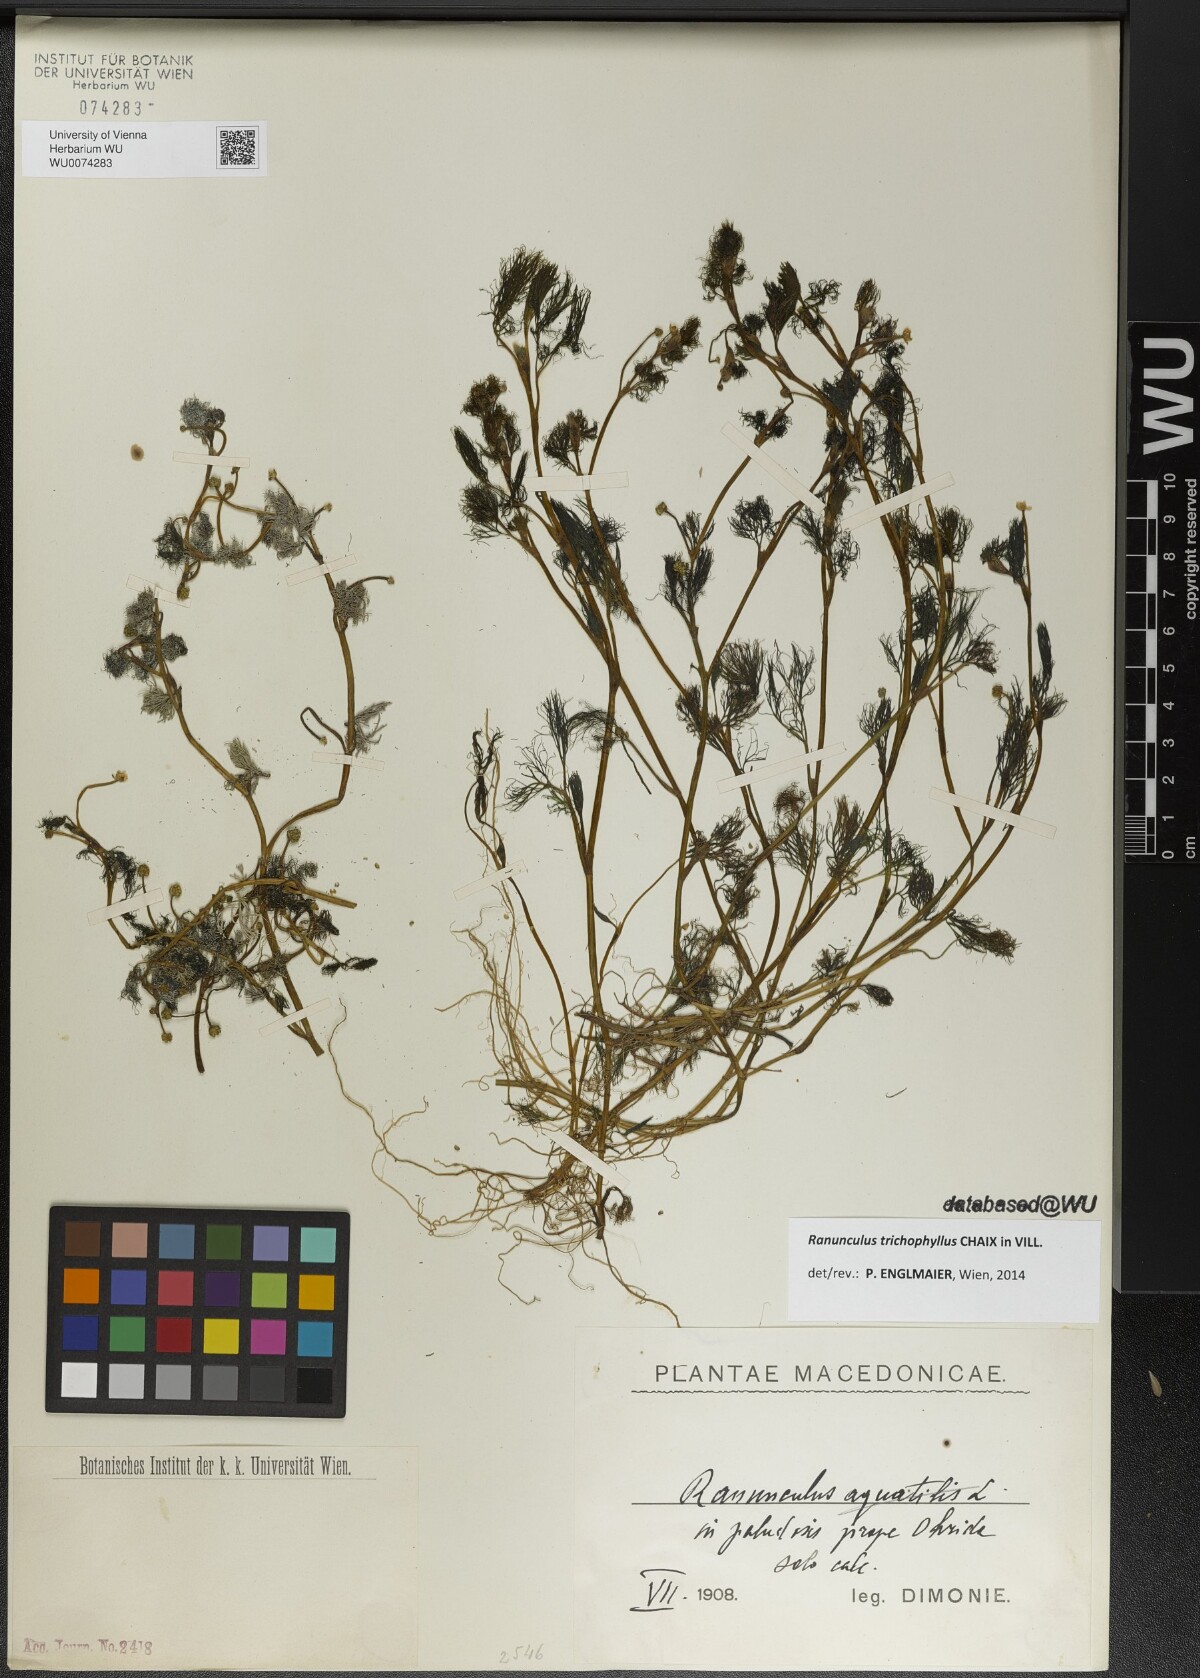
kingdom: Plantae
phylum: Tracheophyta
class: Magnoliopsida
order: Ranunculales
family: Ranunculaceae
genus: Ranunculus
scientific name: Ranunculus trichophyllus
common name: Thread-leaved water-crowfoot
